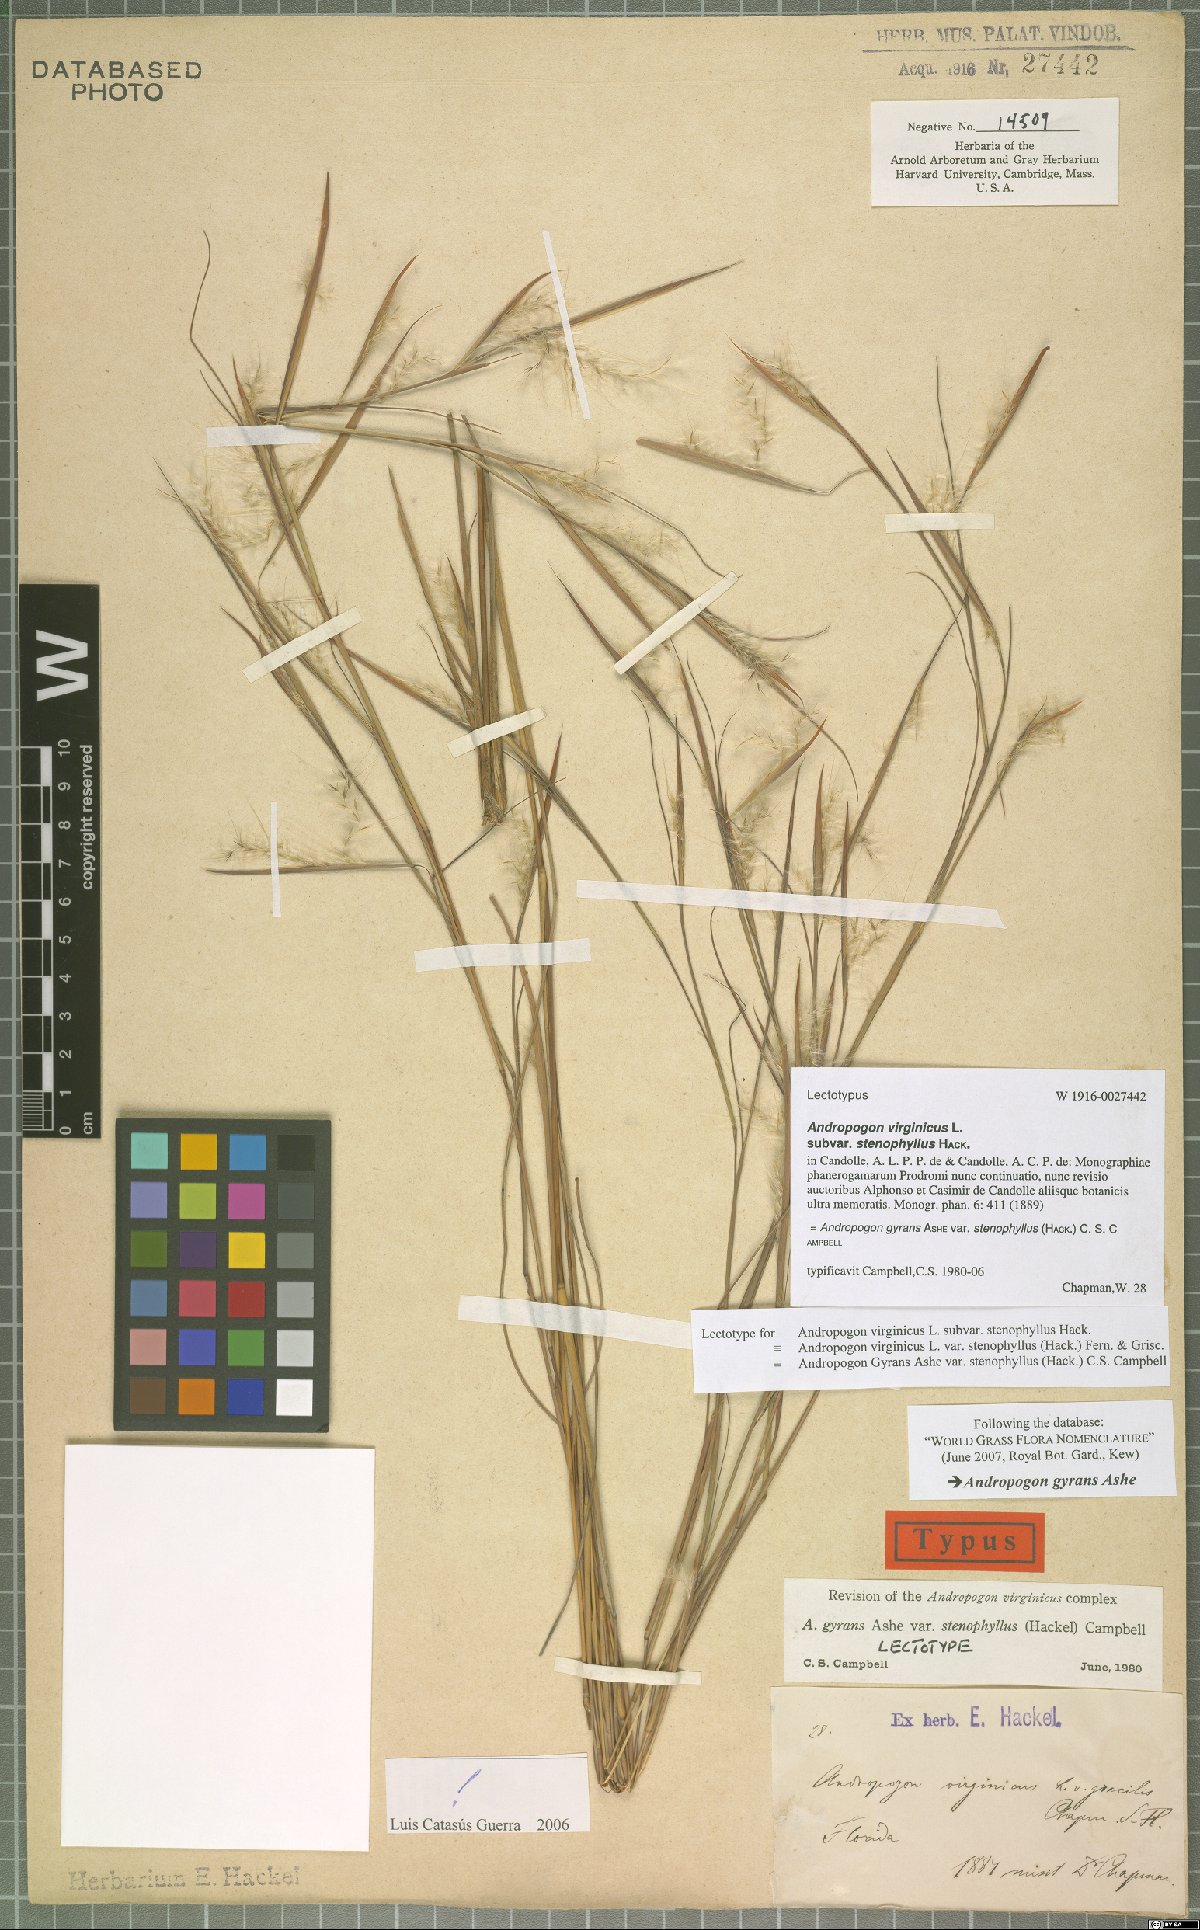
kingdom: Plantae
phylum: Tracheophyta
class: Liliopsida
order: Poales
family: Poaceae
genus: Andropogon
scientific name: Andropogon perangustatus
